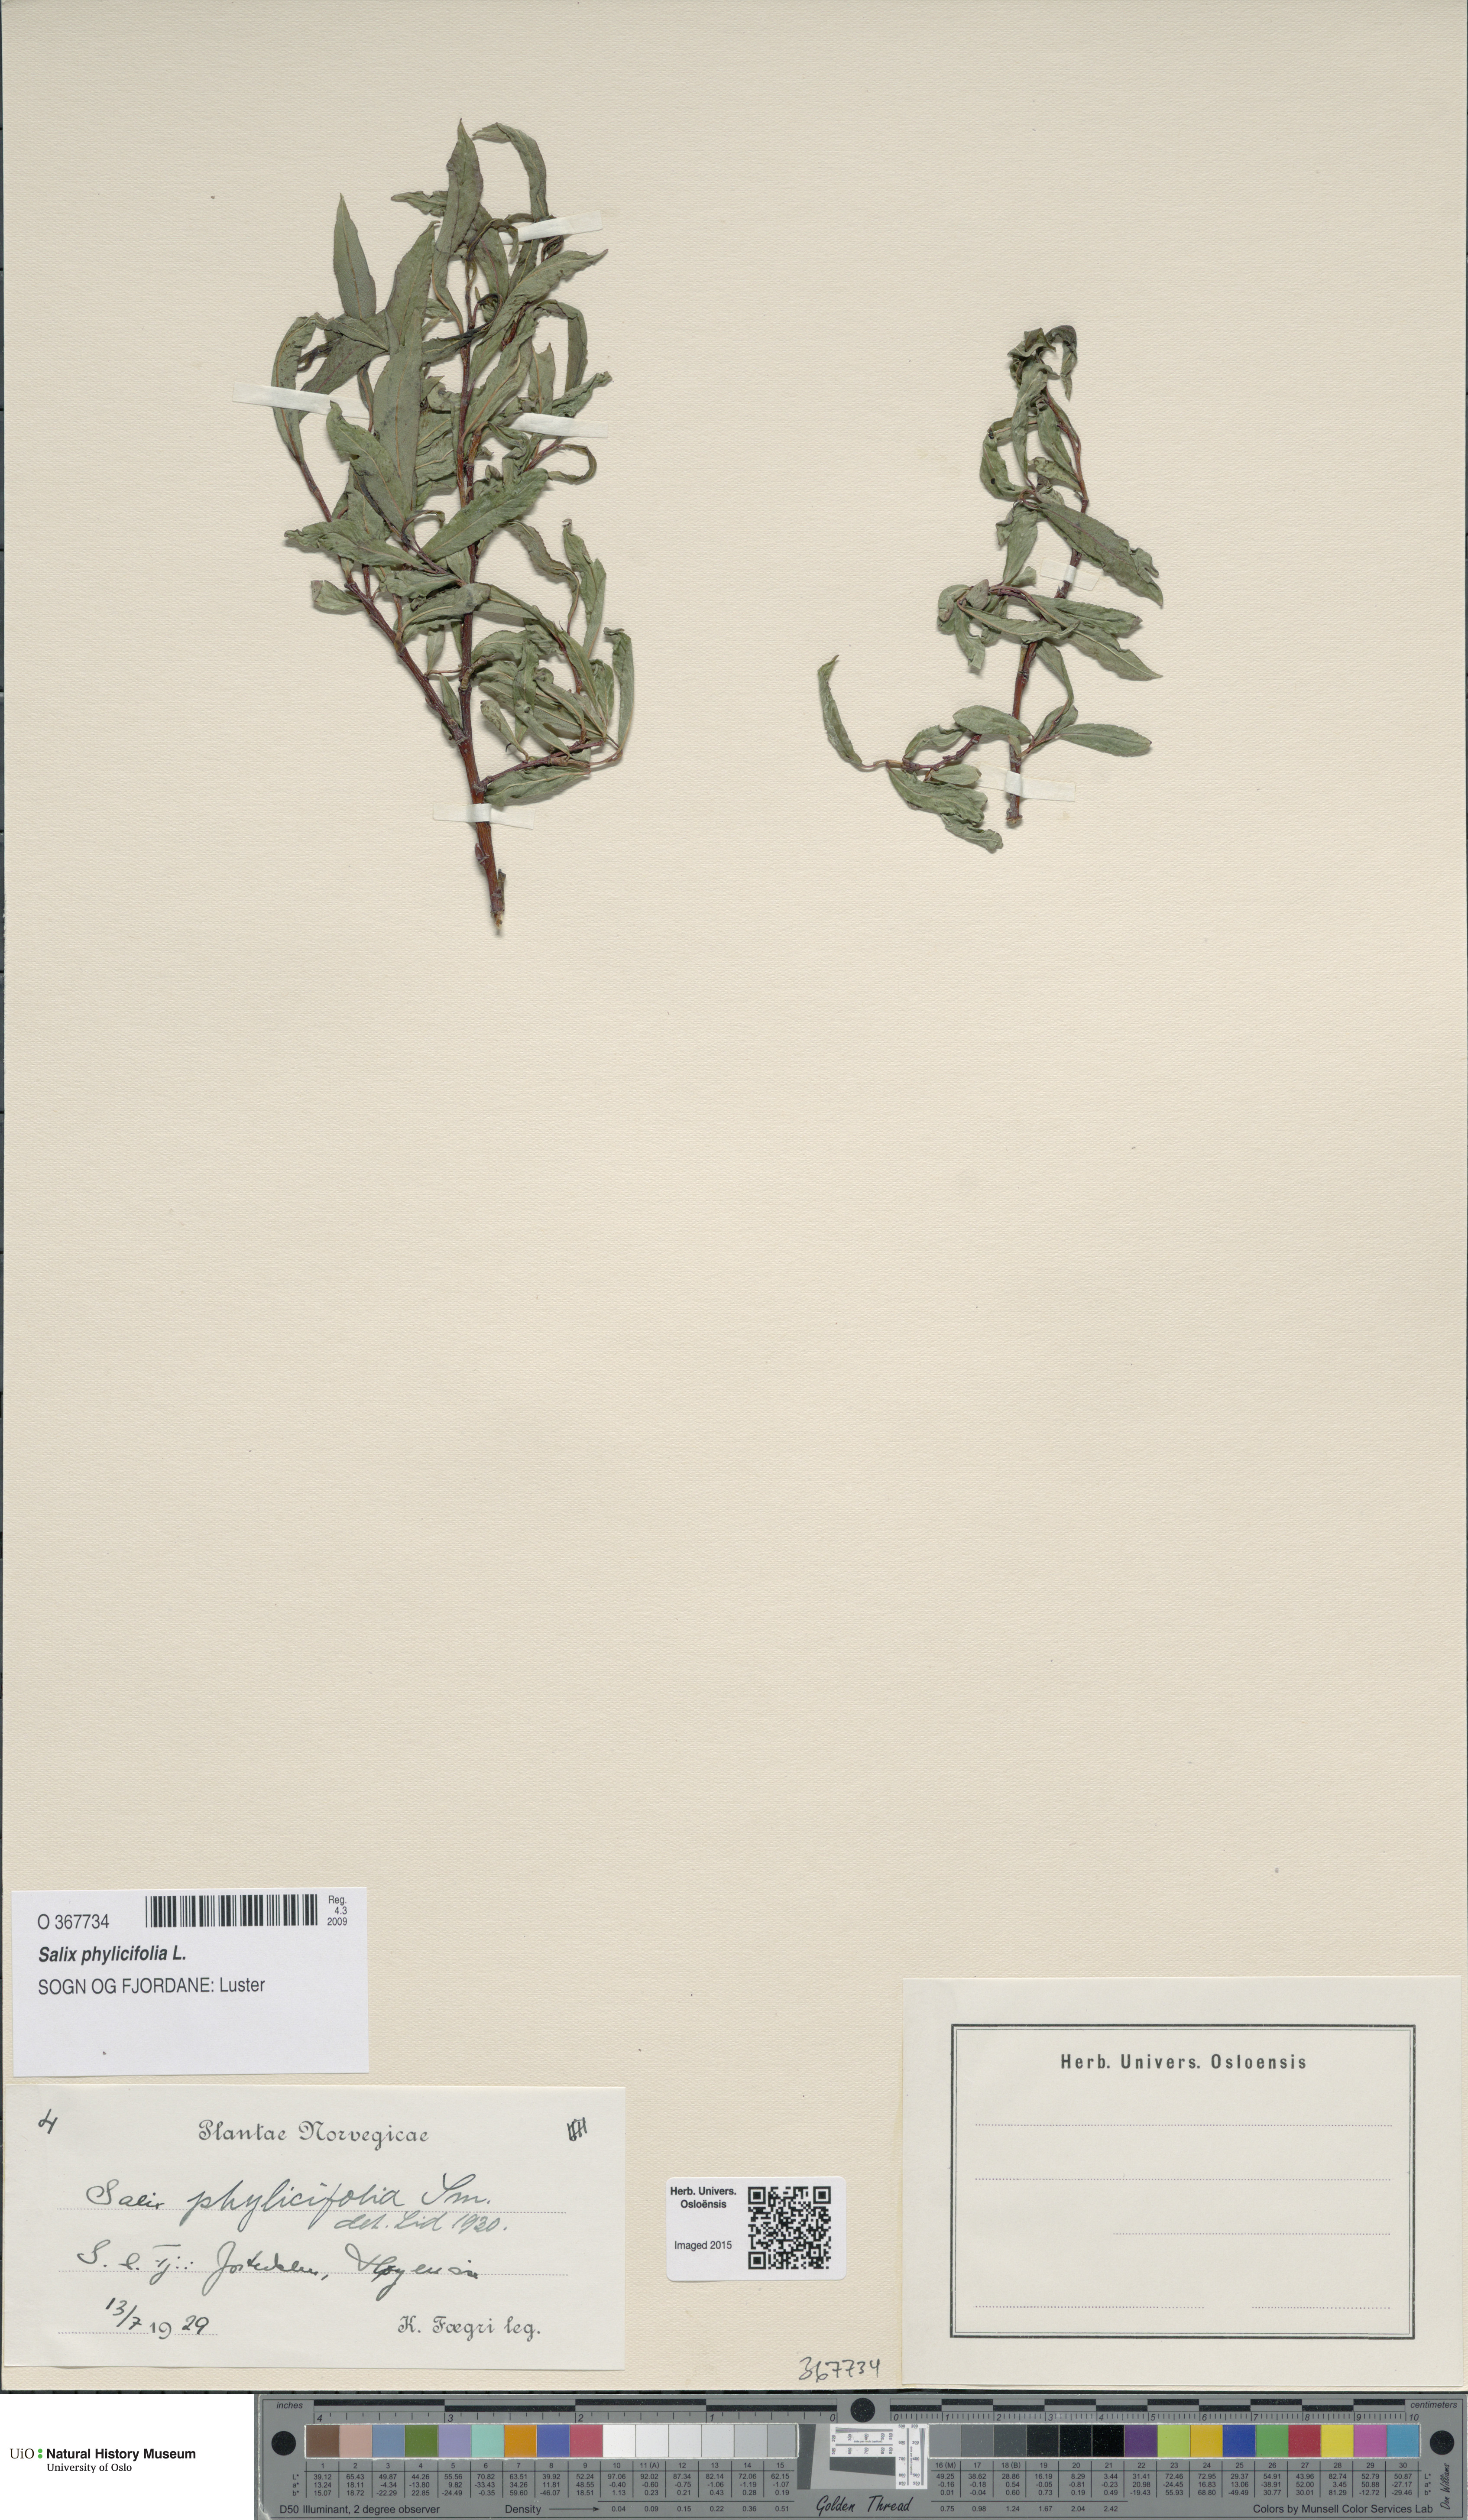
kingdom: Plantae
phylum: Tracheophyta
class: Magnoliopsida
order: Malpighiales
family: Salicaceae
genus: Salix
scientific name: Salix phylicifolia
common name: Tea-leaved willow
